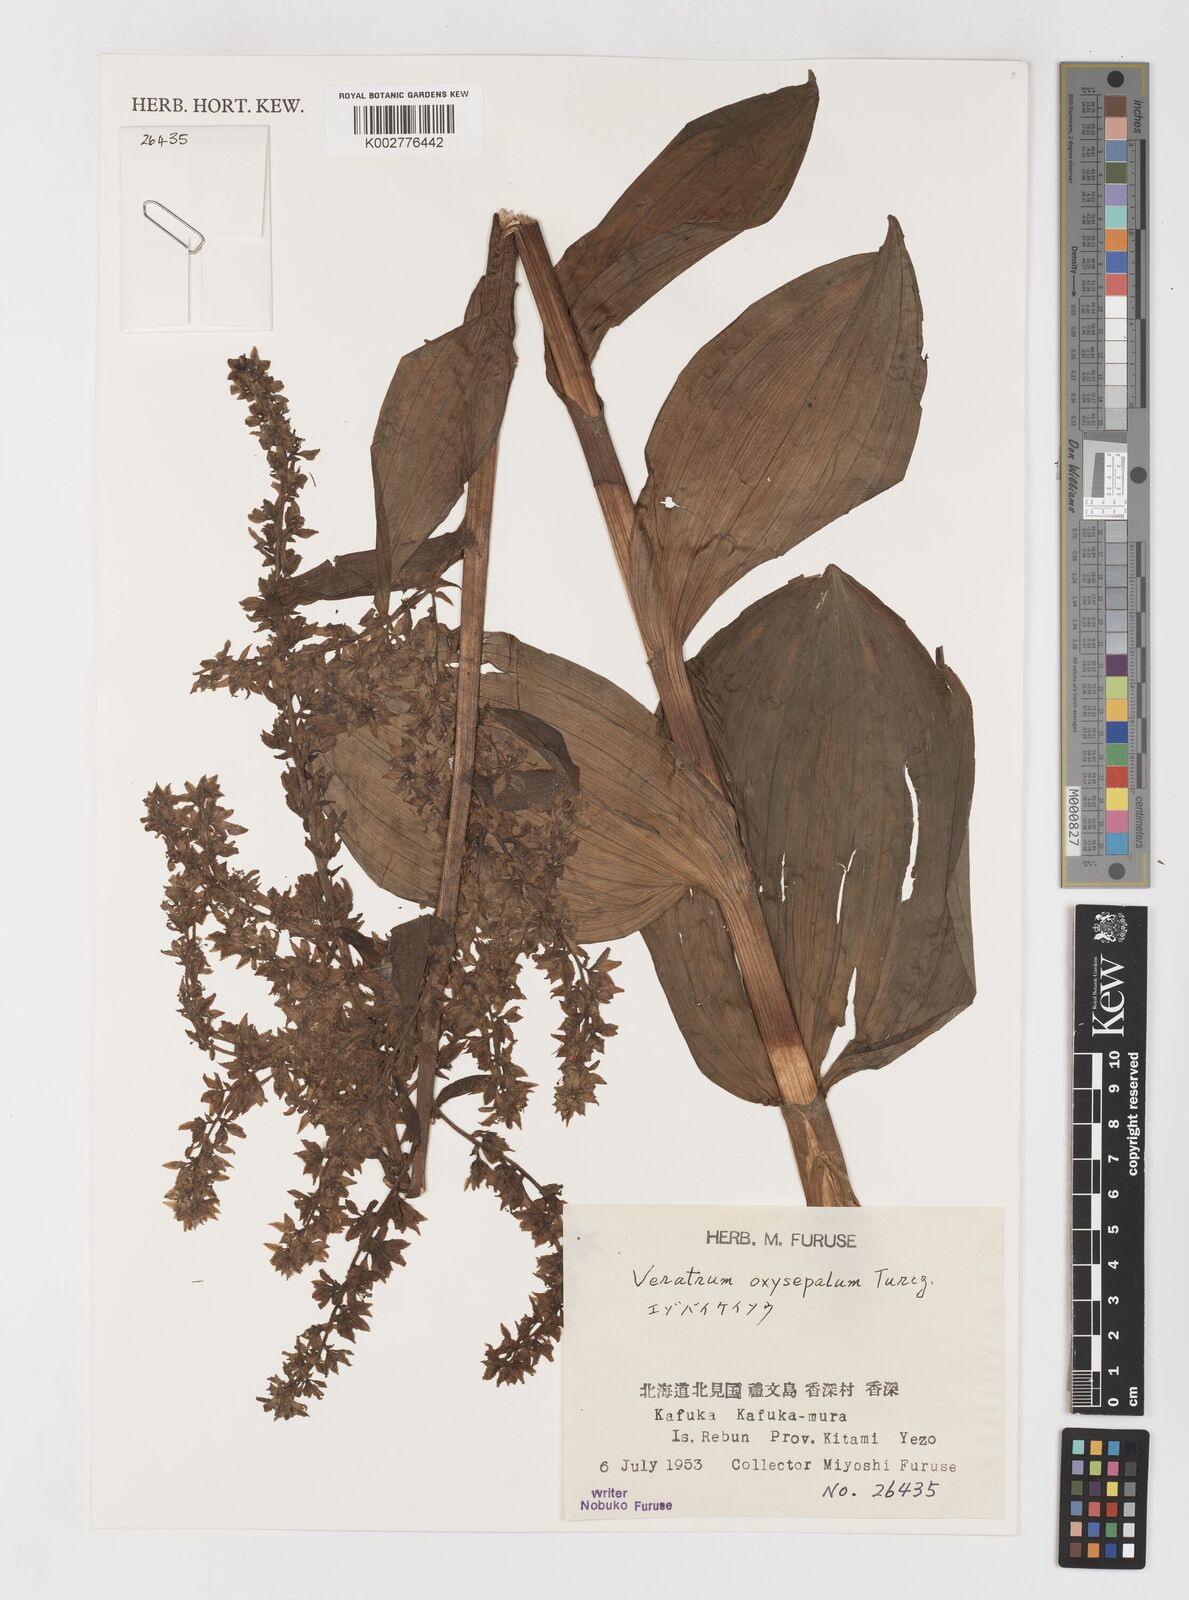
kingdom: Plantae
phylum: Tracheophyta
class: Liliopsida
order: Liliales
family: Melanthiaceae
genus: Veratrum
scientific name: Veratrum oxysepalum
